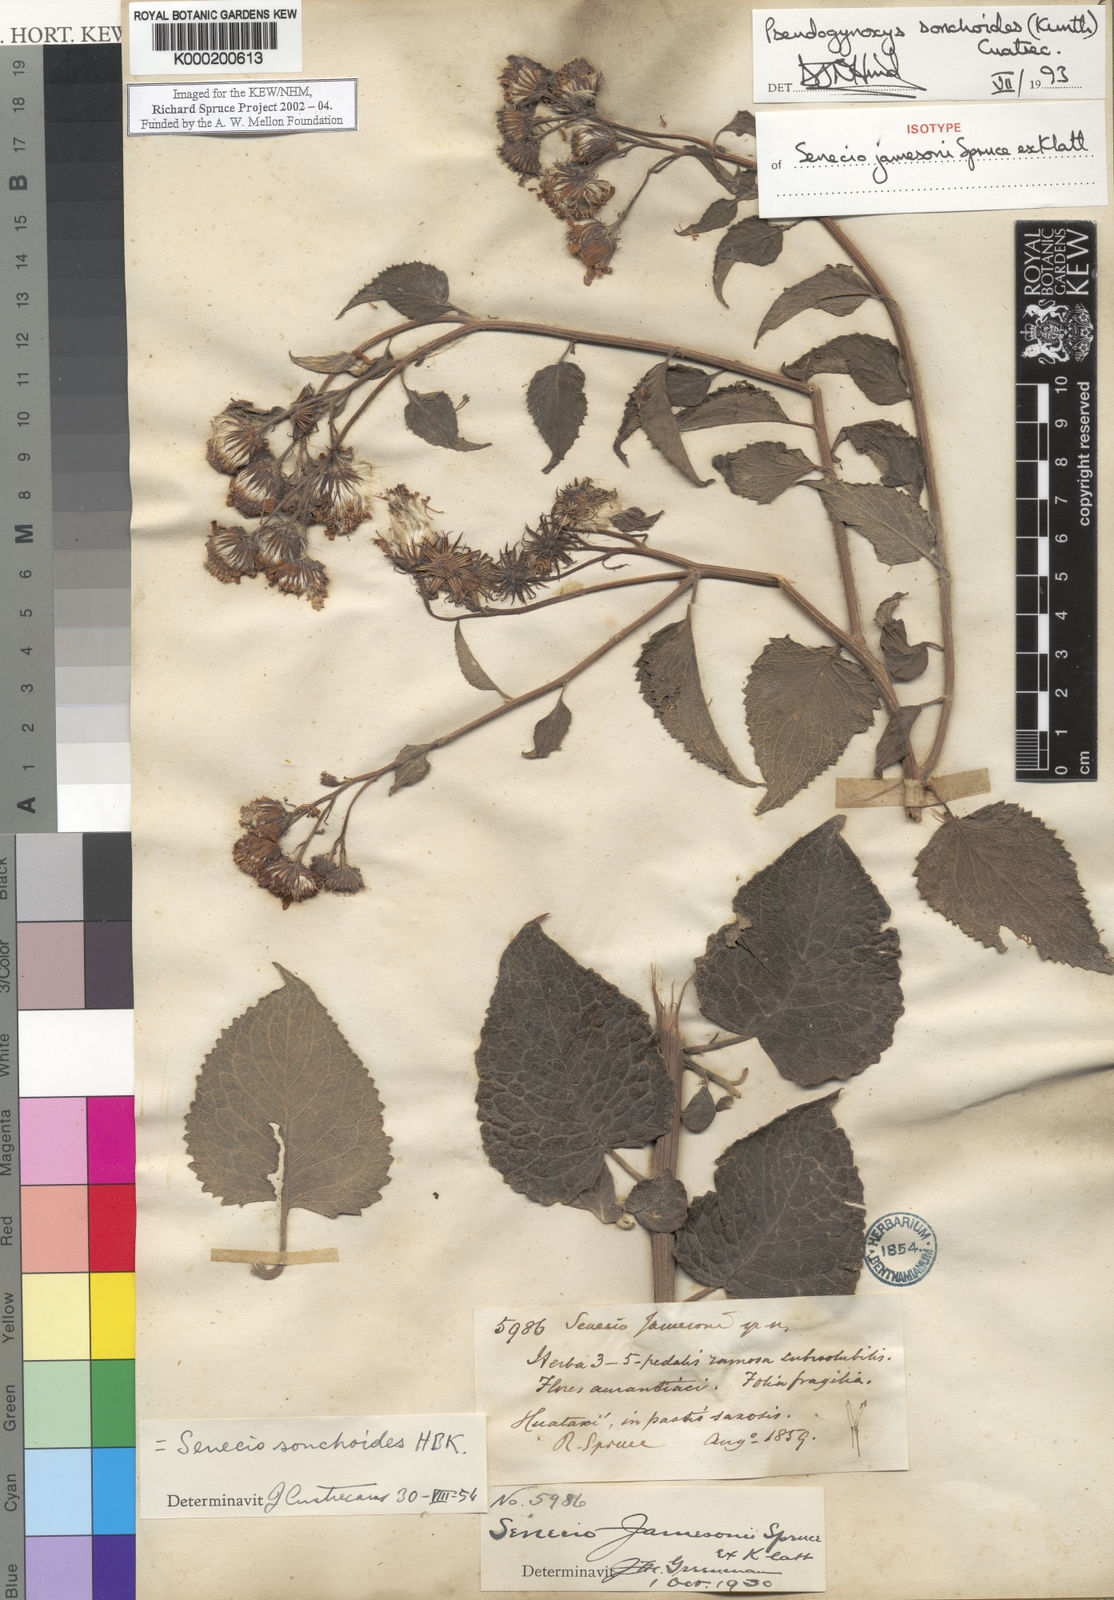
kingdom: Plantae
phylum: Tracheophyta
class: Magnoliopsida
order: Asterales
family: Asteraceae
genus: Pseudogynoxys
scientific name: Pseudogynoxys
